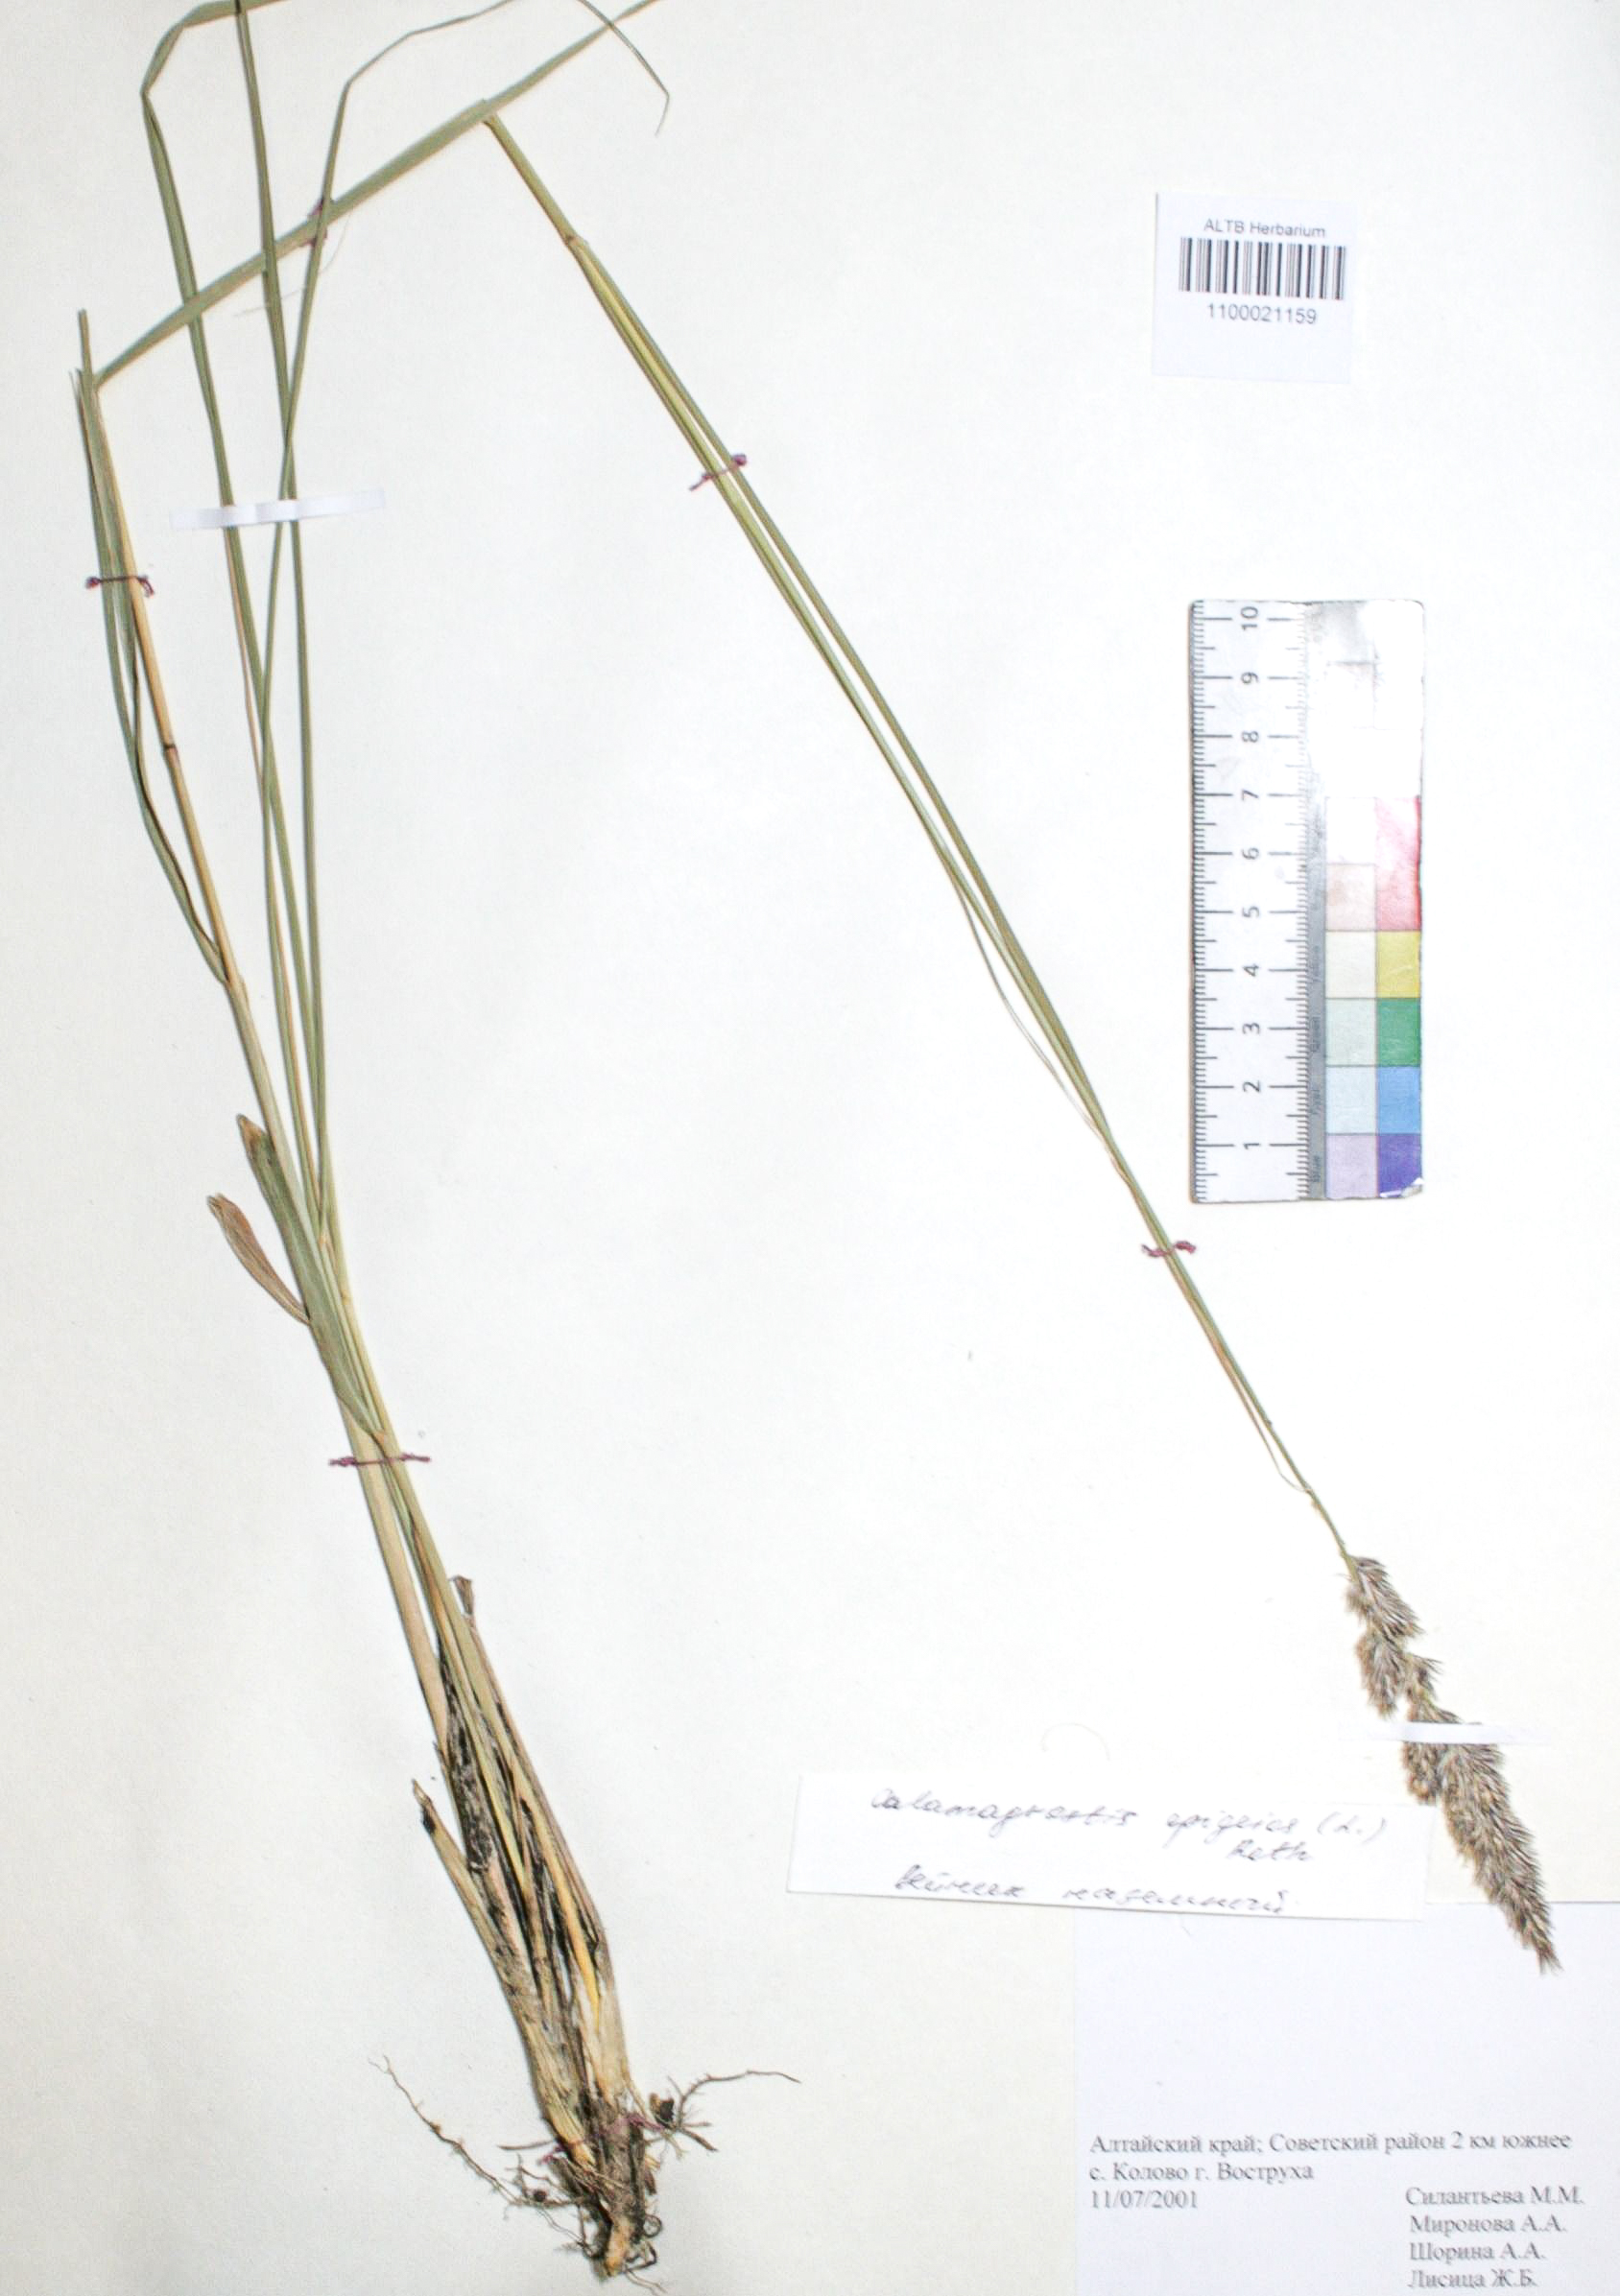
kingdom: Plantae
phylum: Tracheophyta
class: Liliopsida
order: Poales
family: Poaceae
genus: Calamagrostis
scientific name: Calamagrostis epigejos
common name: Wood small-reed
